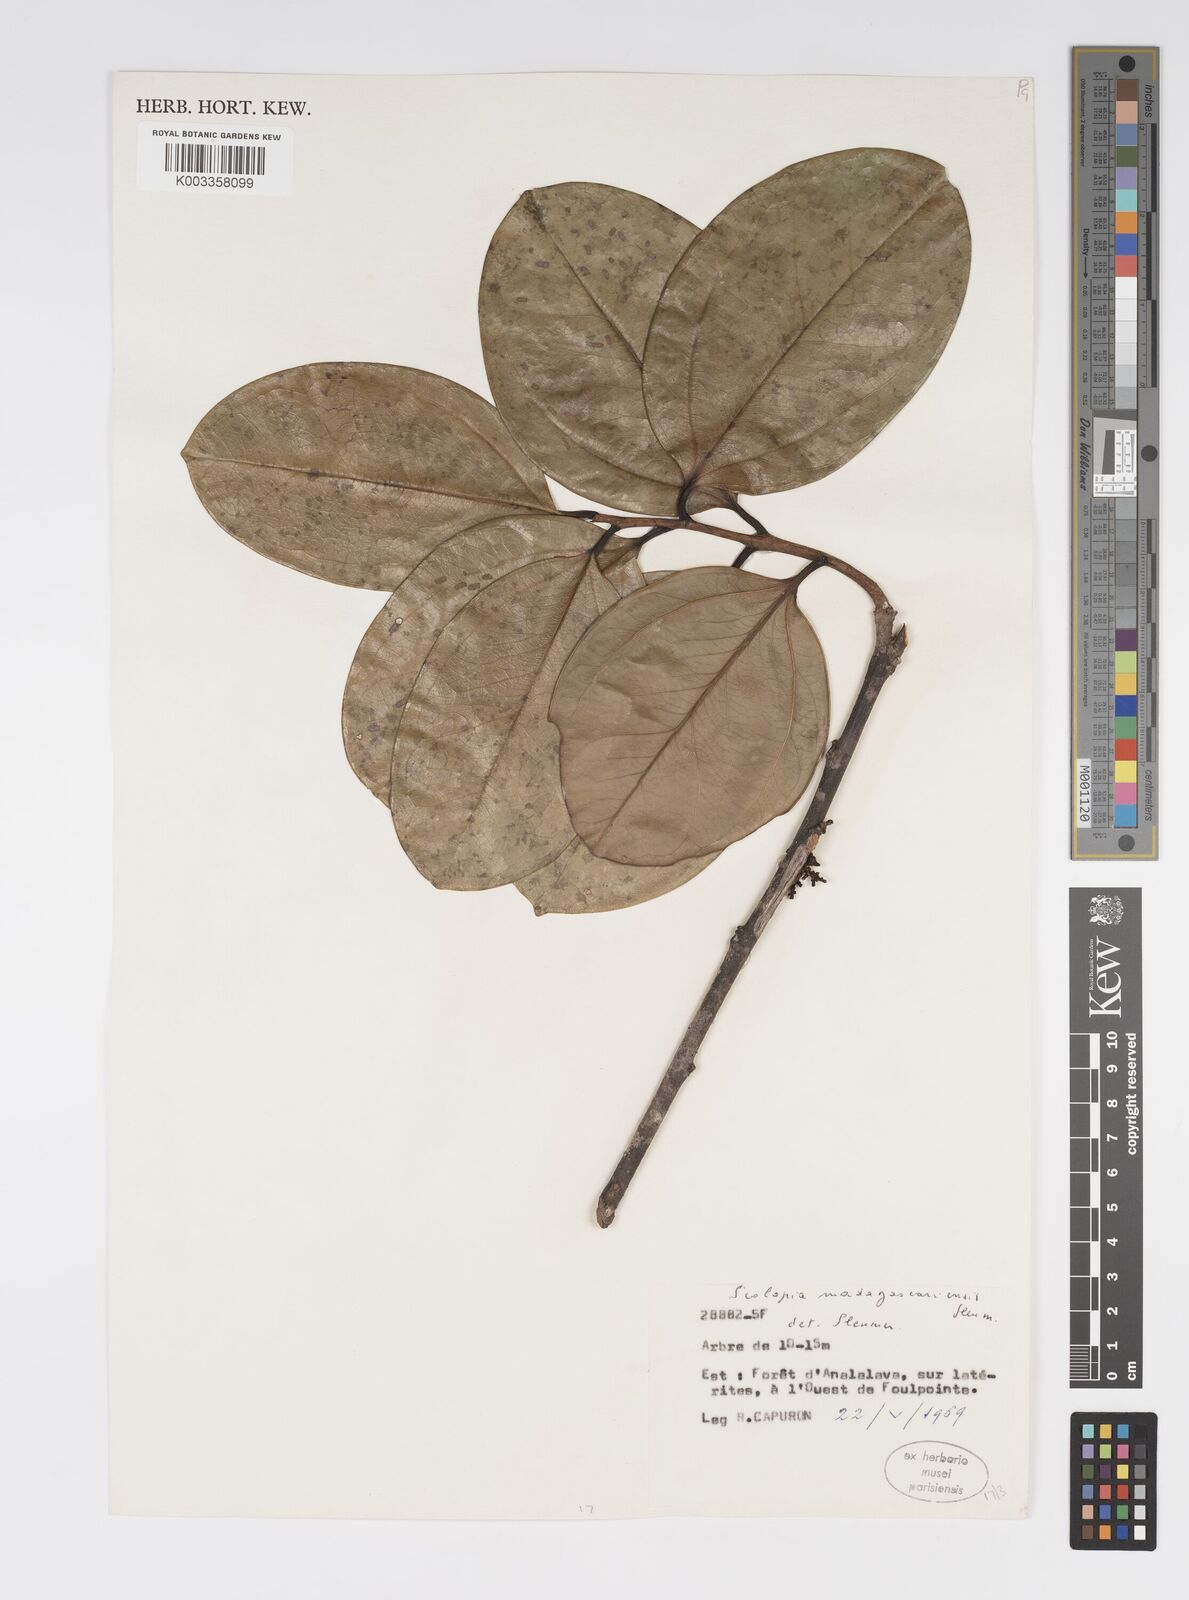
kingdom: Plantae
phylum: Tracheophyta
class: Magnoliopsida
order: Malpighiales
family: Salicaceae
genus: Scolopia
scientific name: Scolopia madagascariensis
